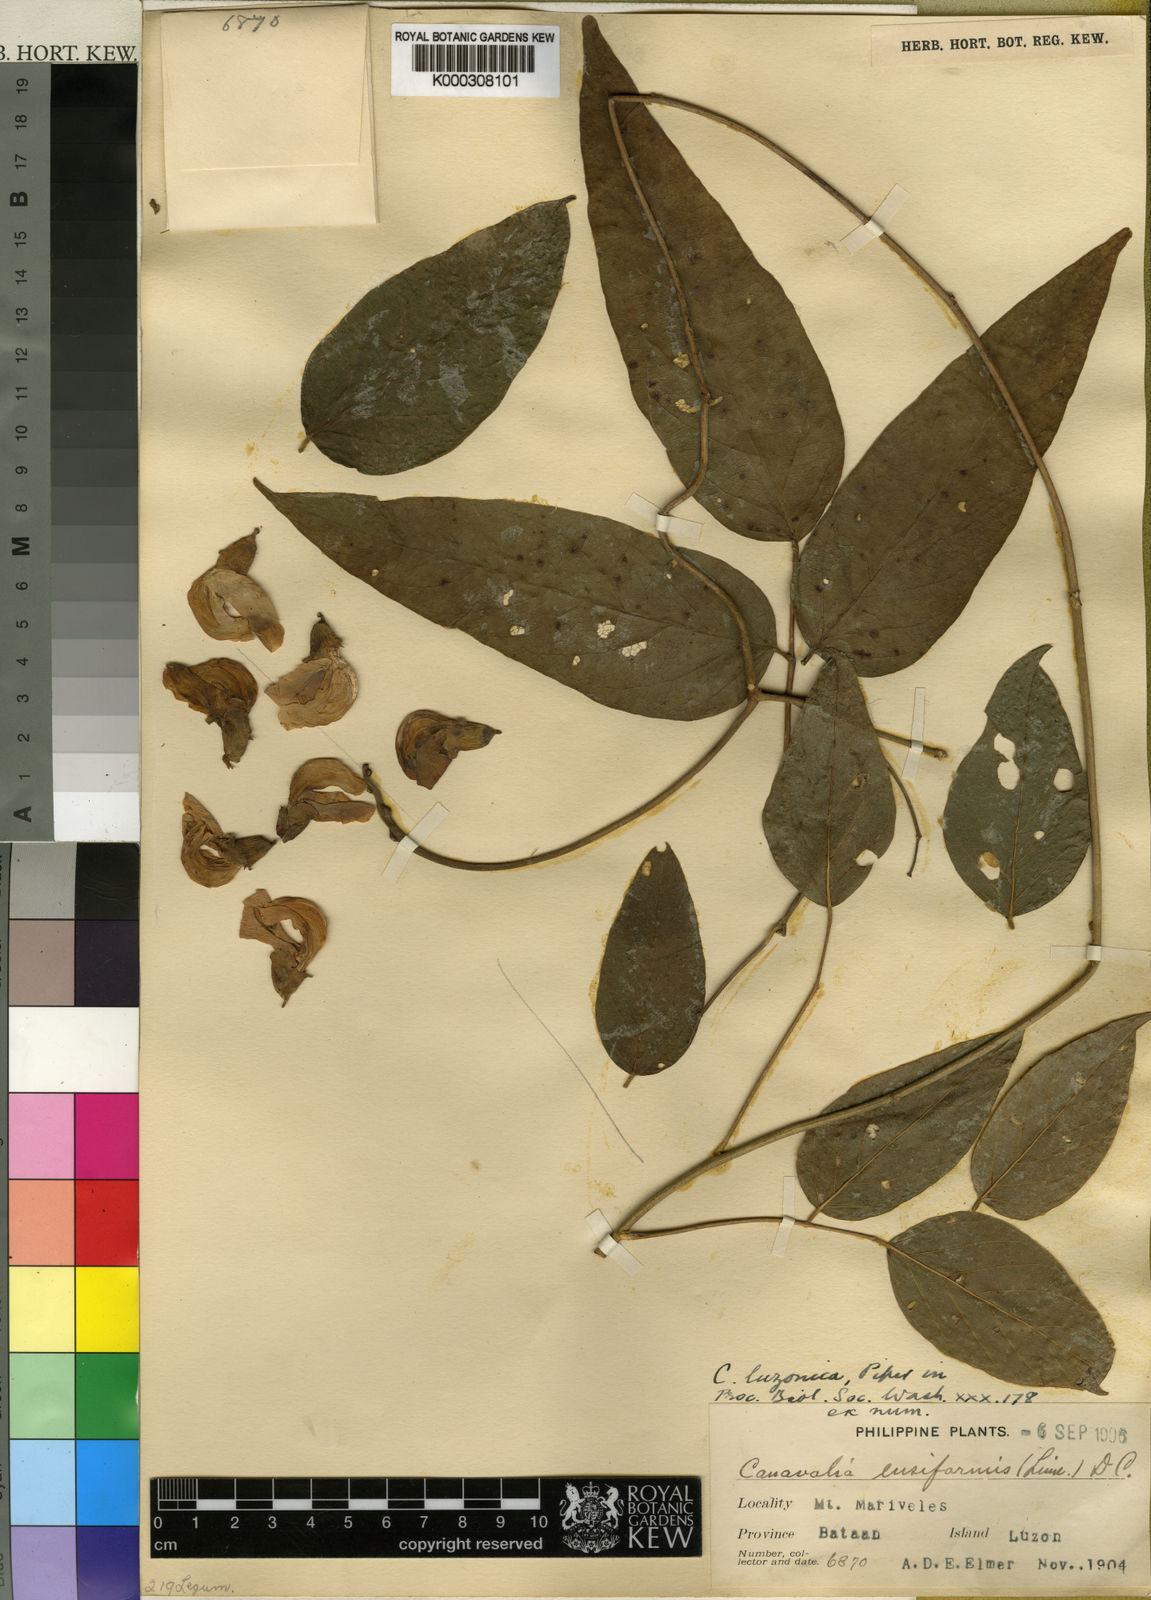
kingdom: Plantae
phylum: Tracheophyta
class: Magnoliopsida
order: Fabales
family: Fabaceae
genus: Canavalia
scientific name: Canavalia macrobotrys
